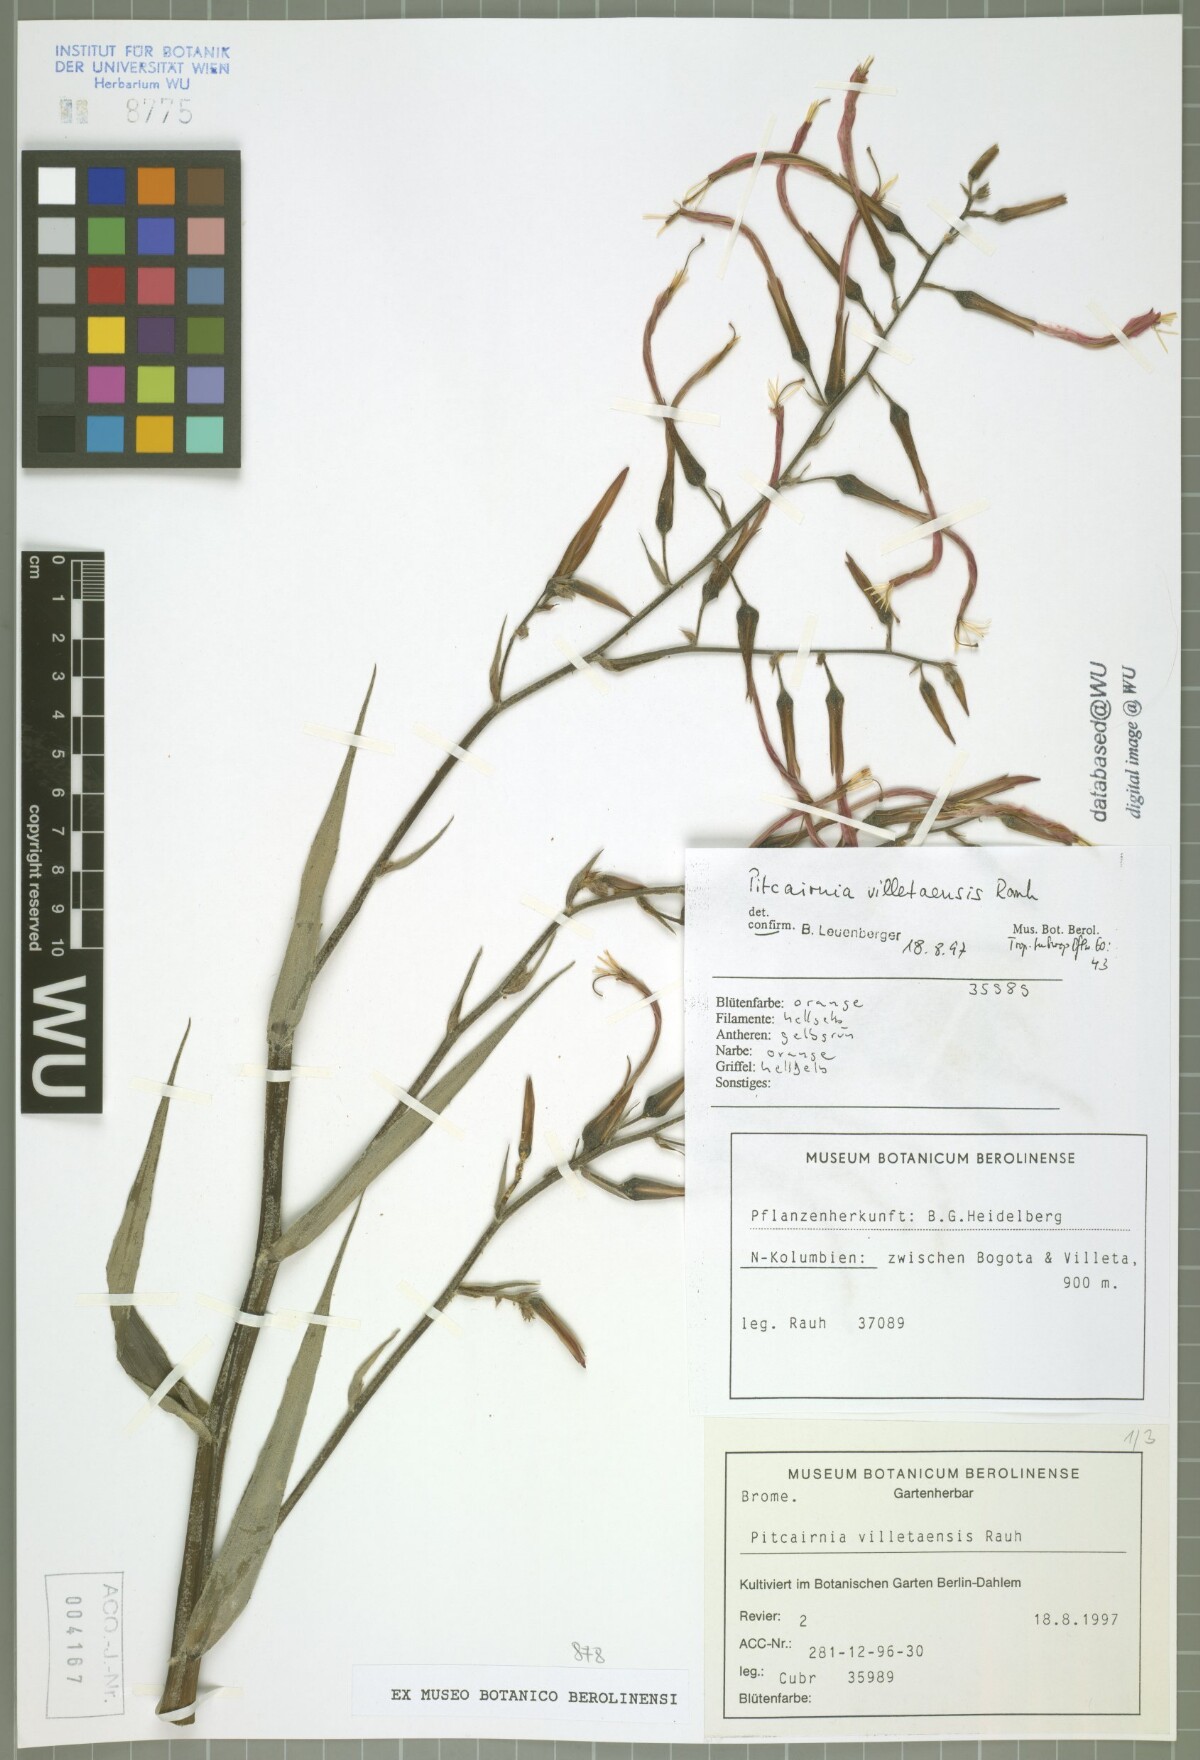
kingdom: Plantae
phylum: Tracheophyta
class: Liliopsida
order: Poales
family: Bromeliaceae
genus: Pitcairnia
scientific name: Pitcairnia villetaensis
